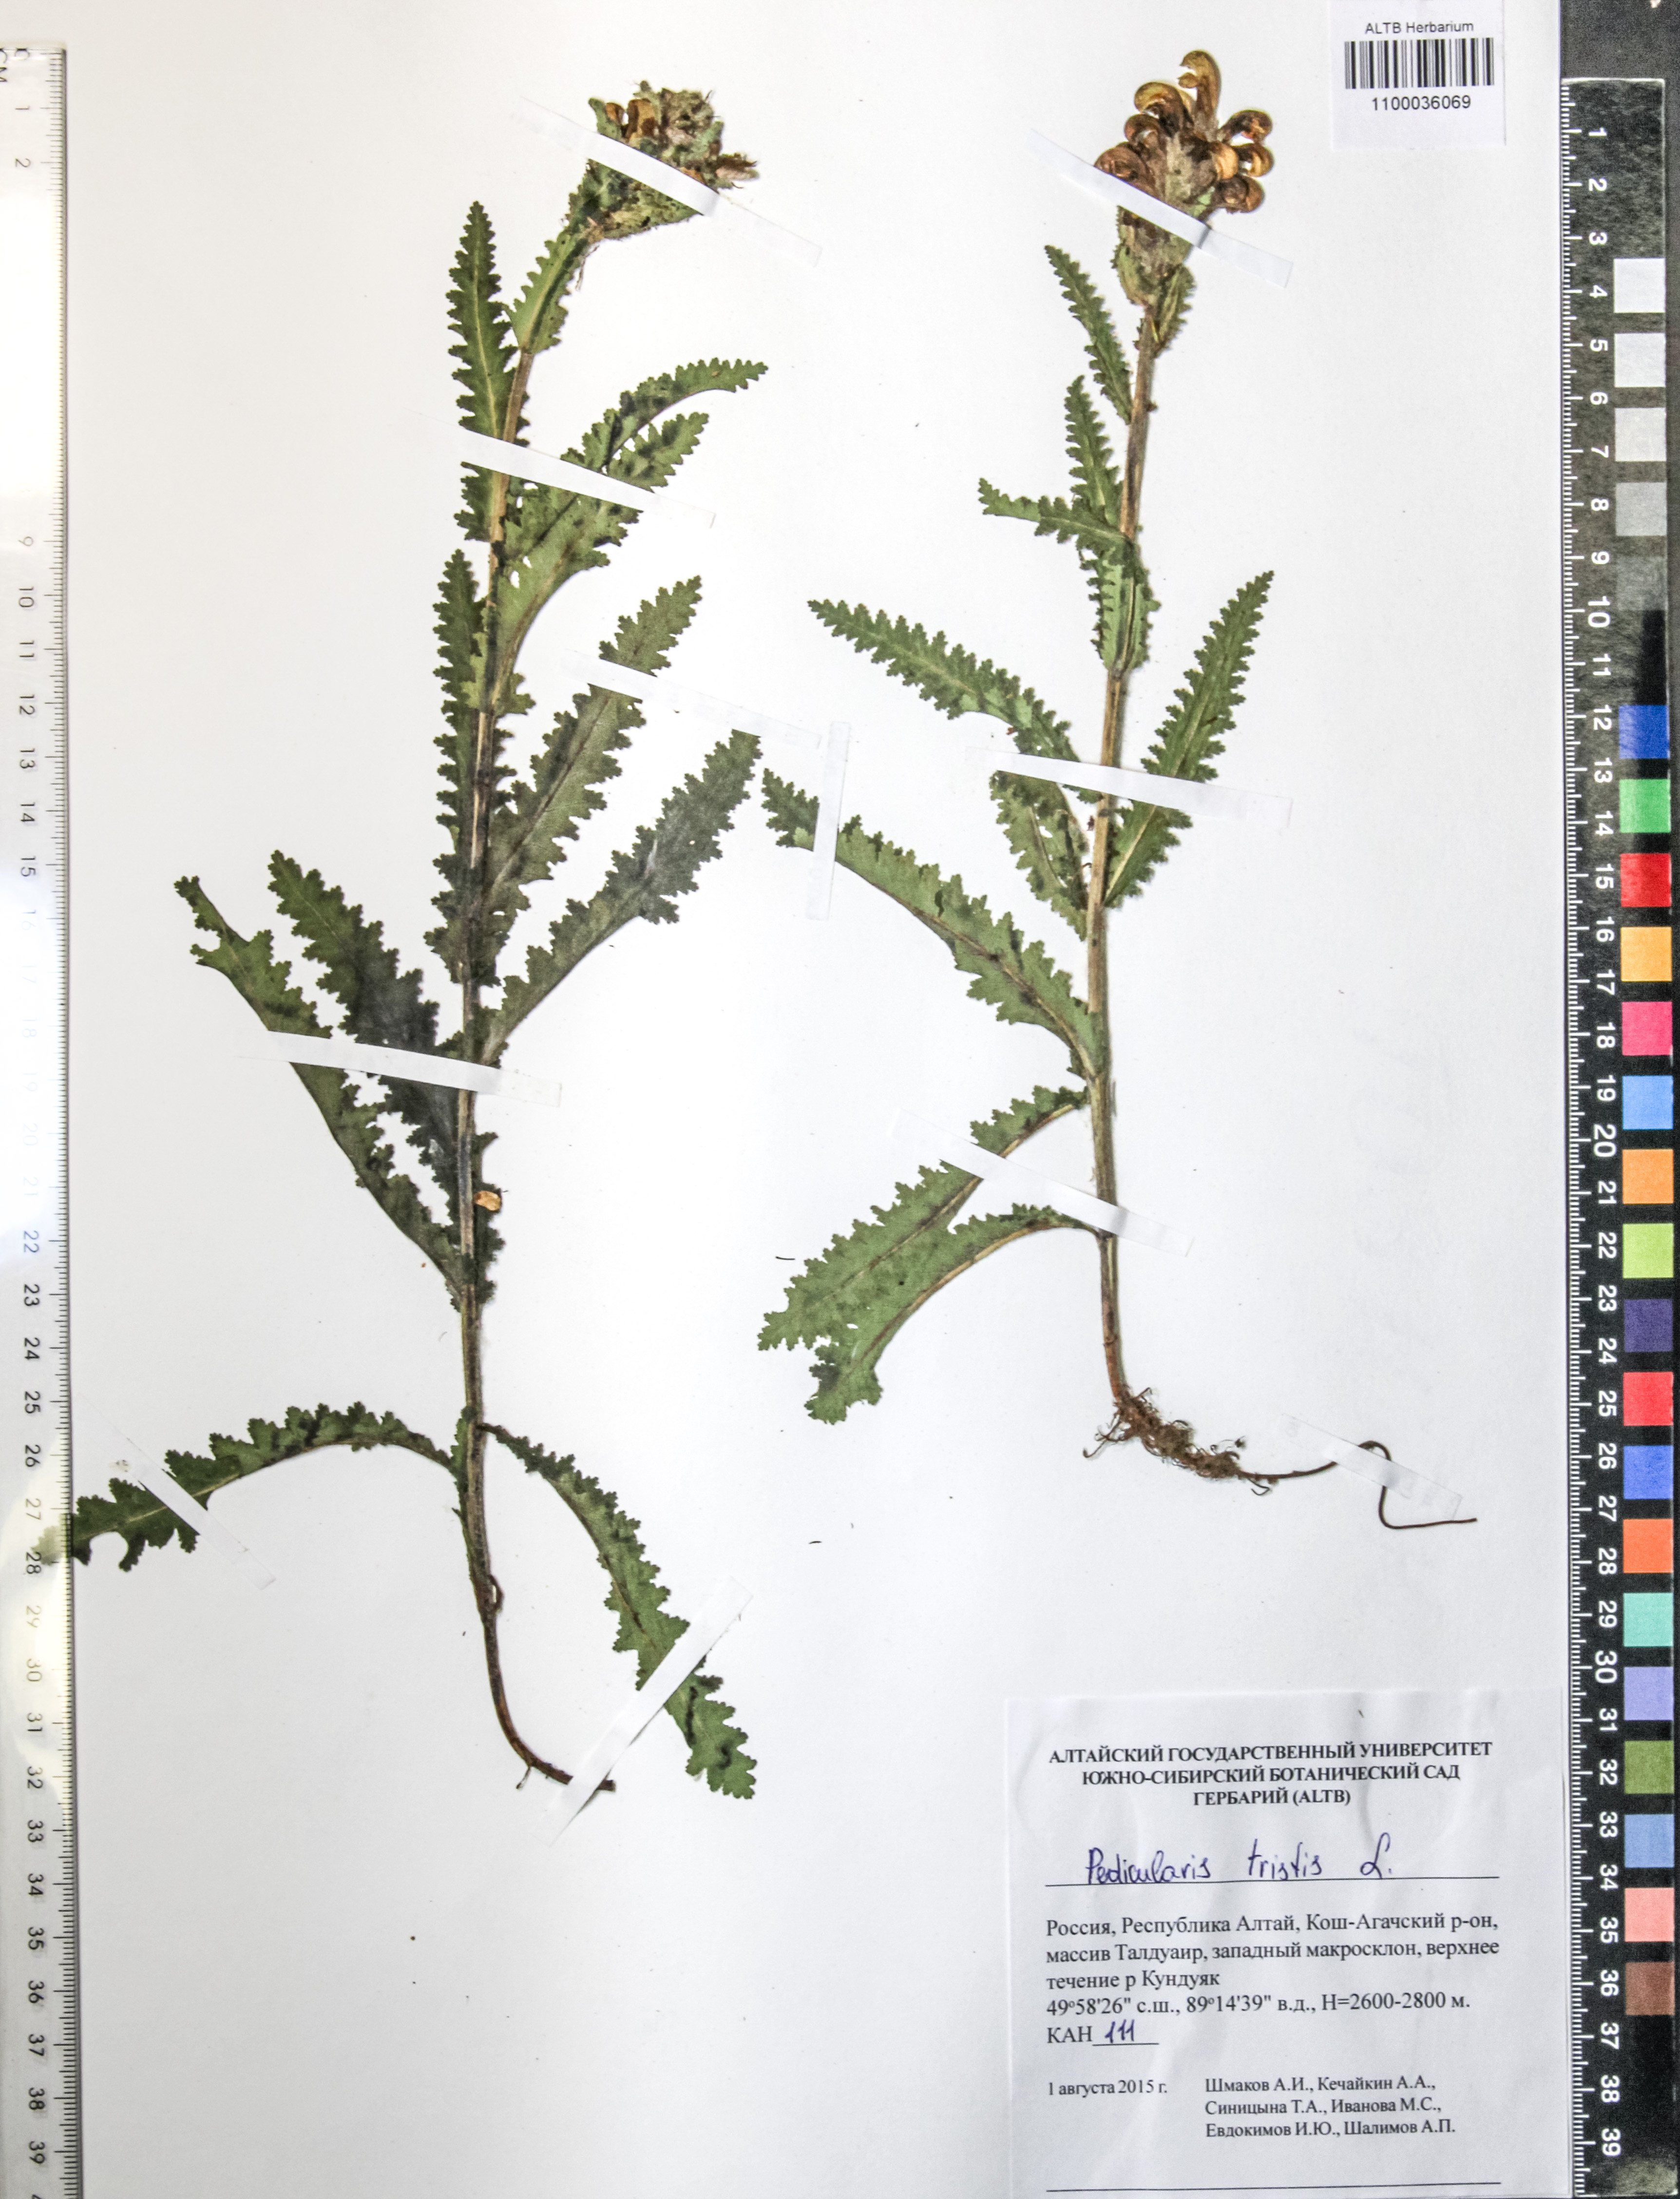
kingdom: Plantae
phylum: Tracheophyta
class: Magnoliopsida
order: Lamiales
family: Orobanchaceae
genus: Pedicularis
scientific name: Pedicularis tristis
